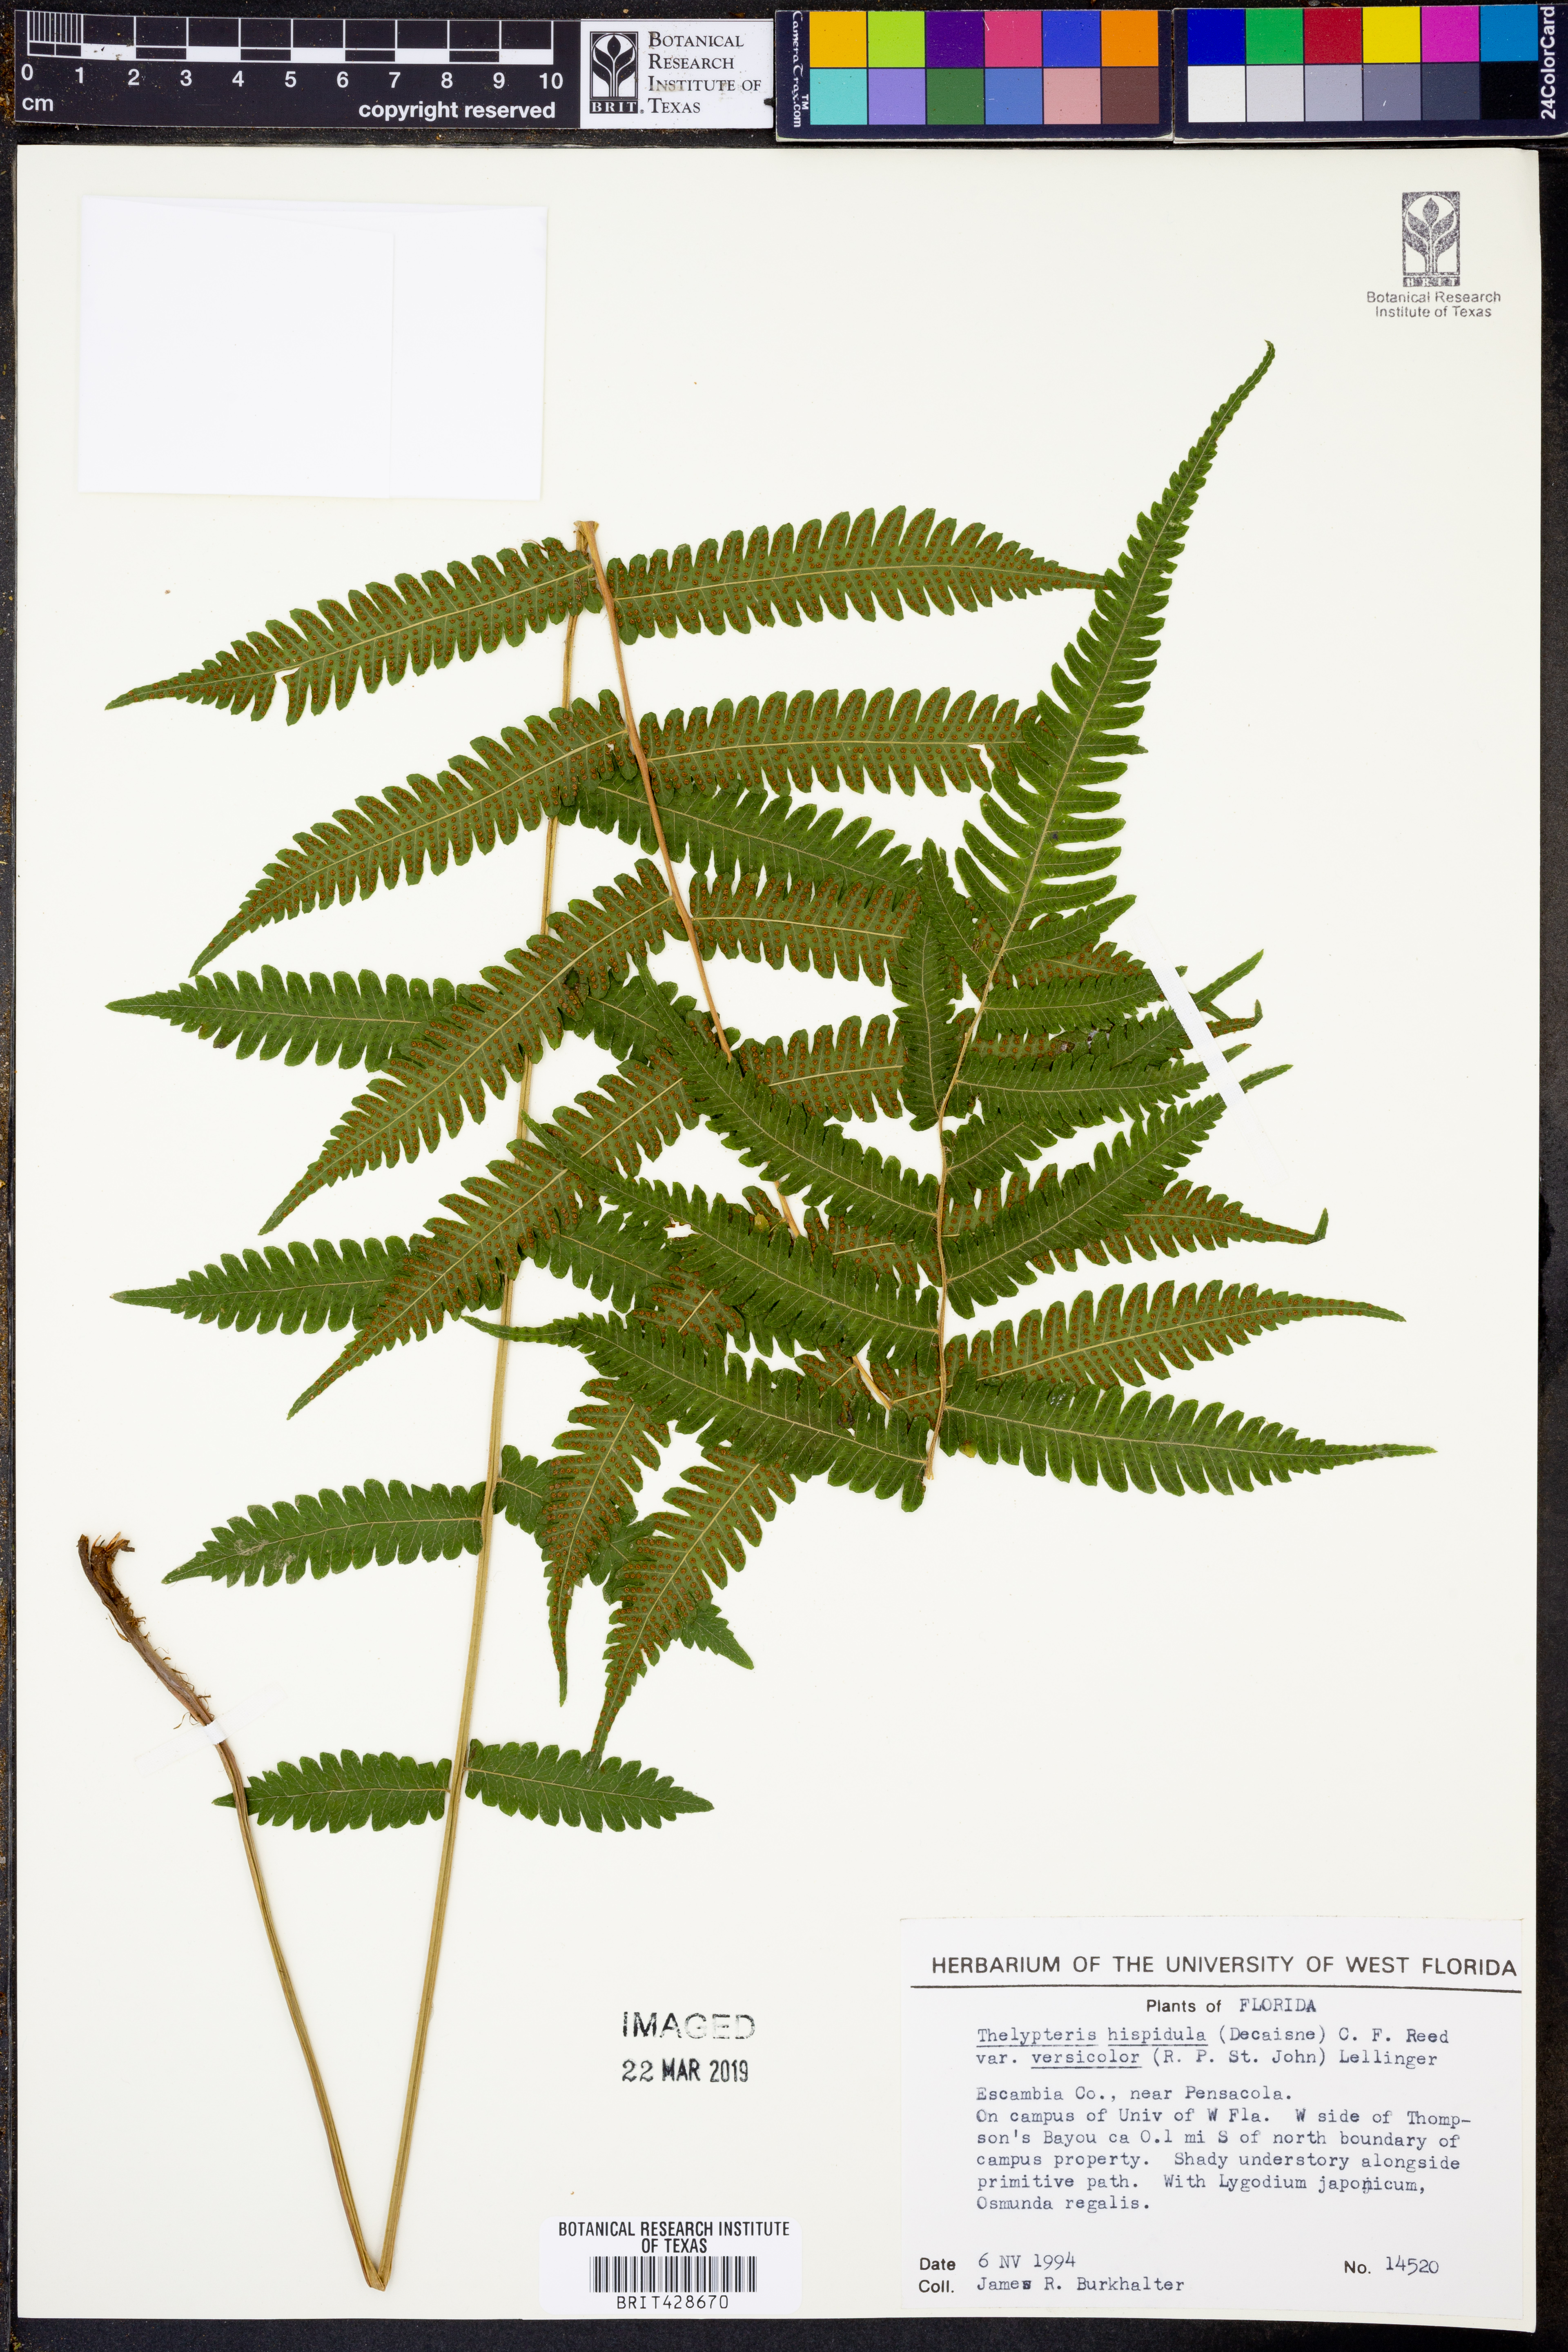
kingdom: Plantae
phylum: Tracheophyta
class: Polypodiopsida
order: Polypodiales
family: Thelypteridaceae
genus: Christella
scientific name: Christella hispidula
